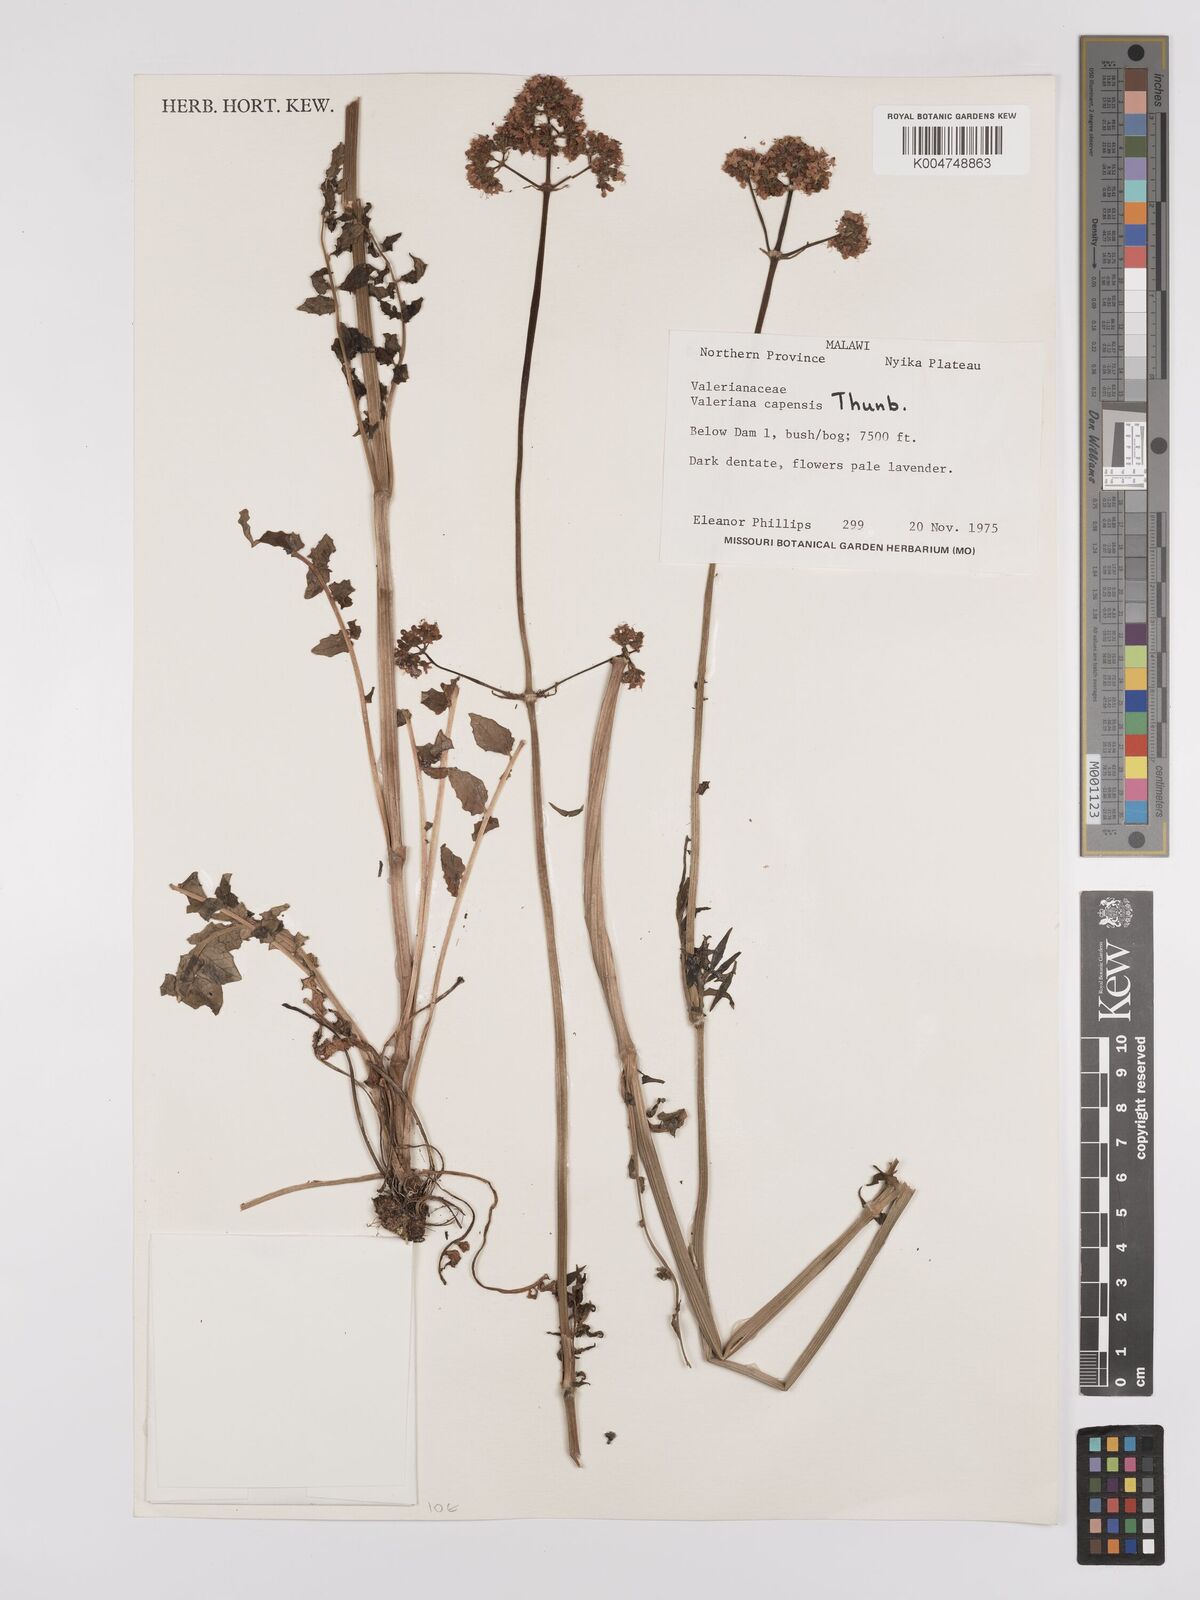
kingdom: Plantae
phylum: Tracheophyta
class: Magnoliopsida
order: Dipsacales
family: Caprifoliaceae
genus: Valeriana
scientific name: Valeriana capensis
